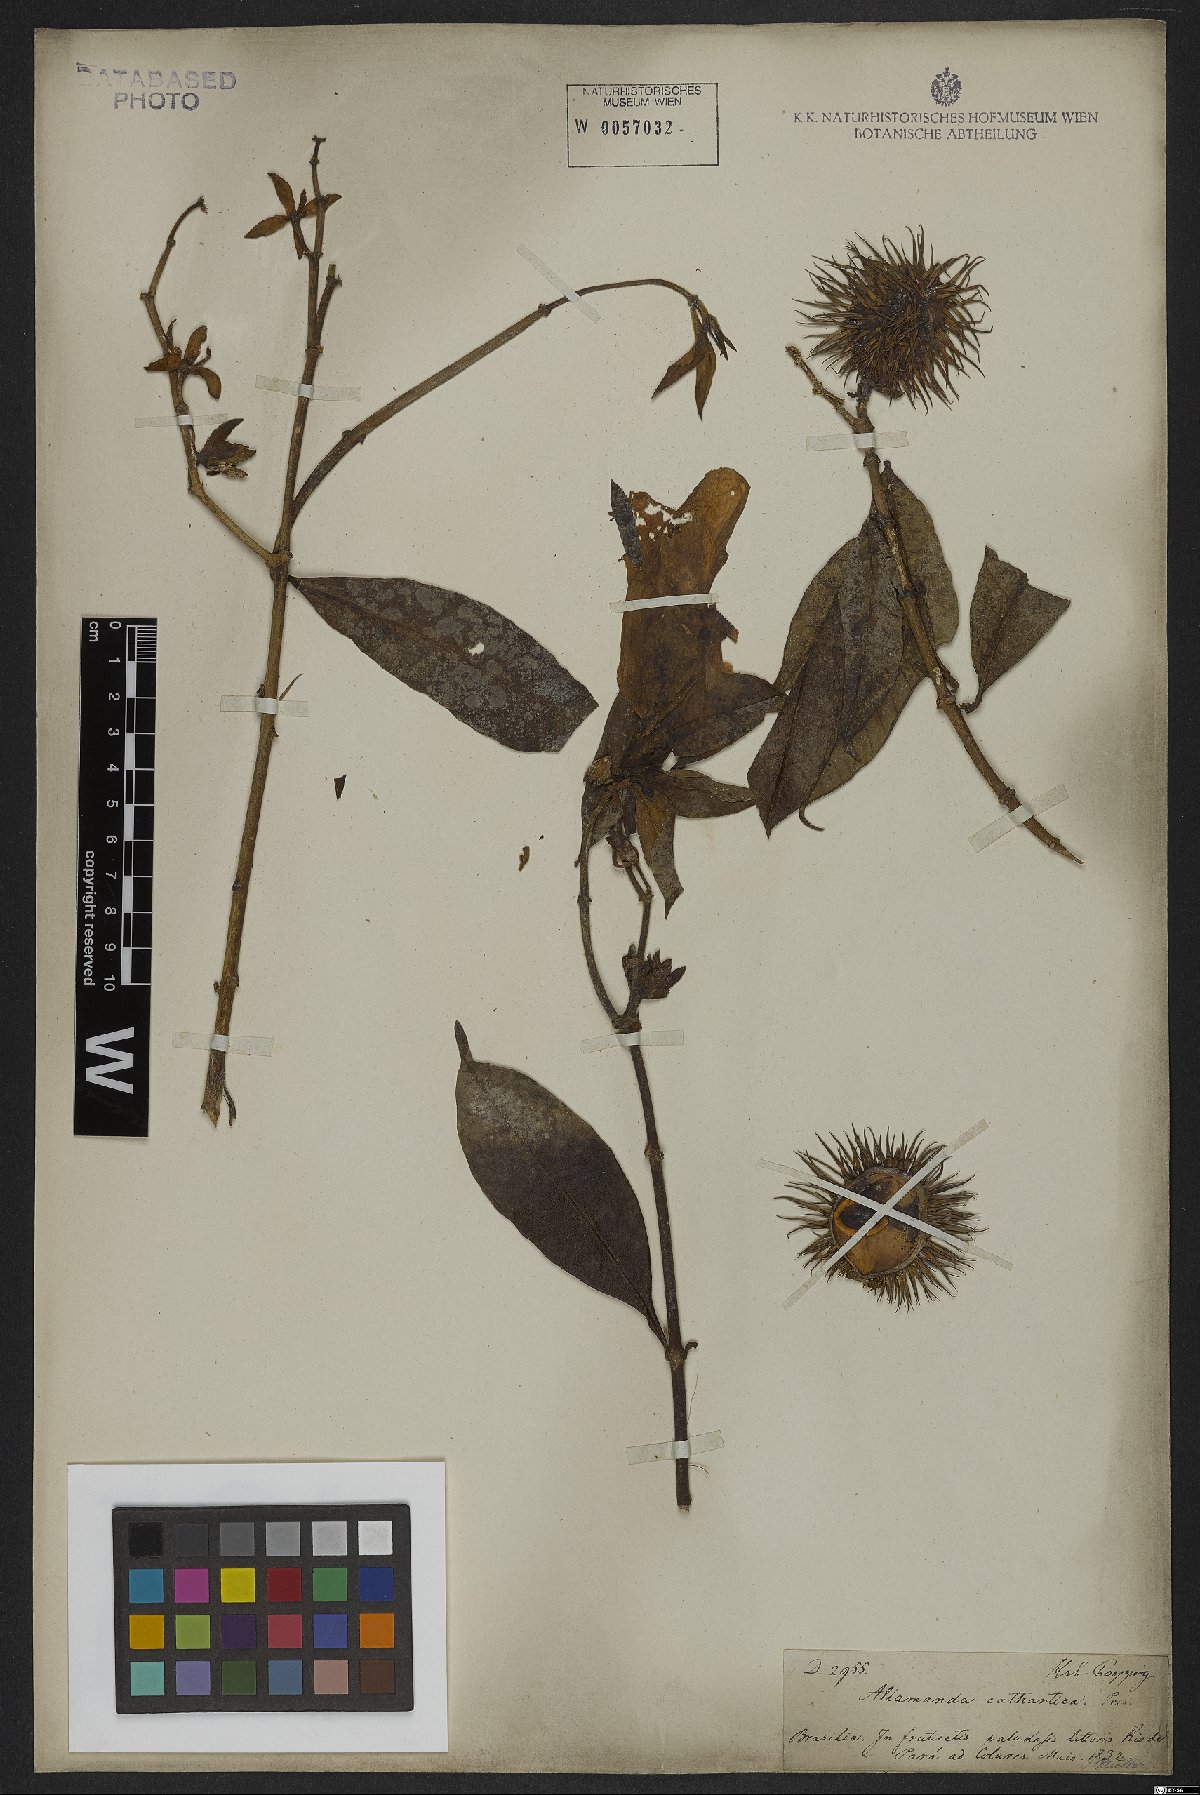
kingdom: Plantae
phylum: Tracheophyta
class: Magnoliopsida
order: Gentianales
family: Apocynaceae
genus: Allamanda
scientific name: Allamanda cathartica
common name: Golden trumpet
